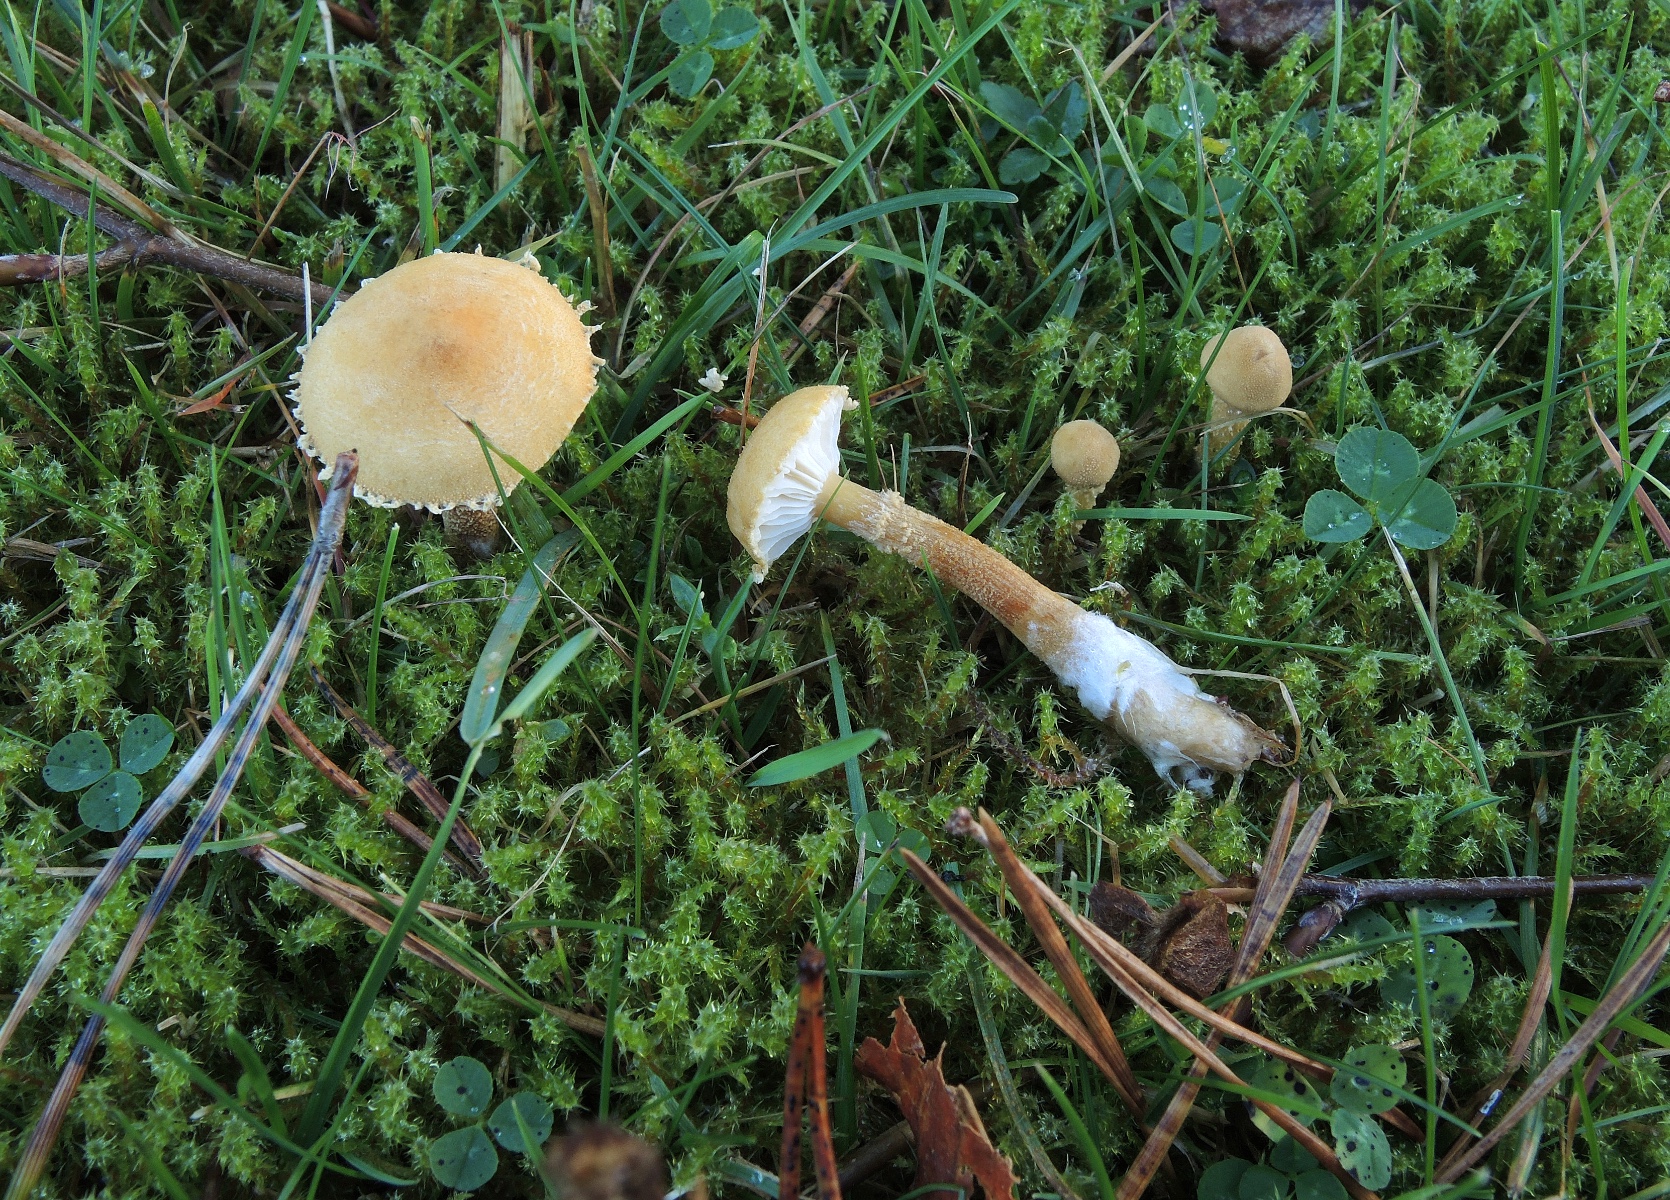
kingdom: Fungi
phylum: Basidiomycota
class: Agaricomycetes
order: Agaricales
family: Tricholomataceae
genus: Cystoderma
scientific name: Cystoderma amianthinum
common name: okkergul grynhat
